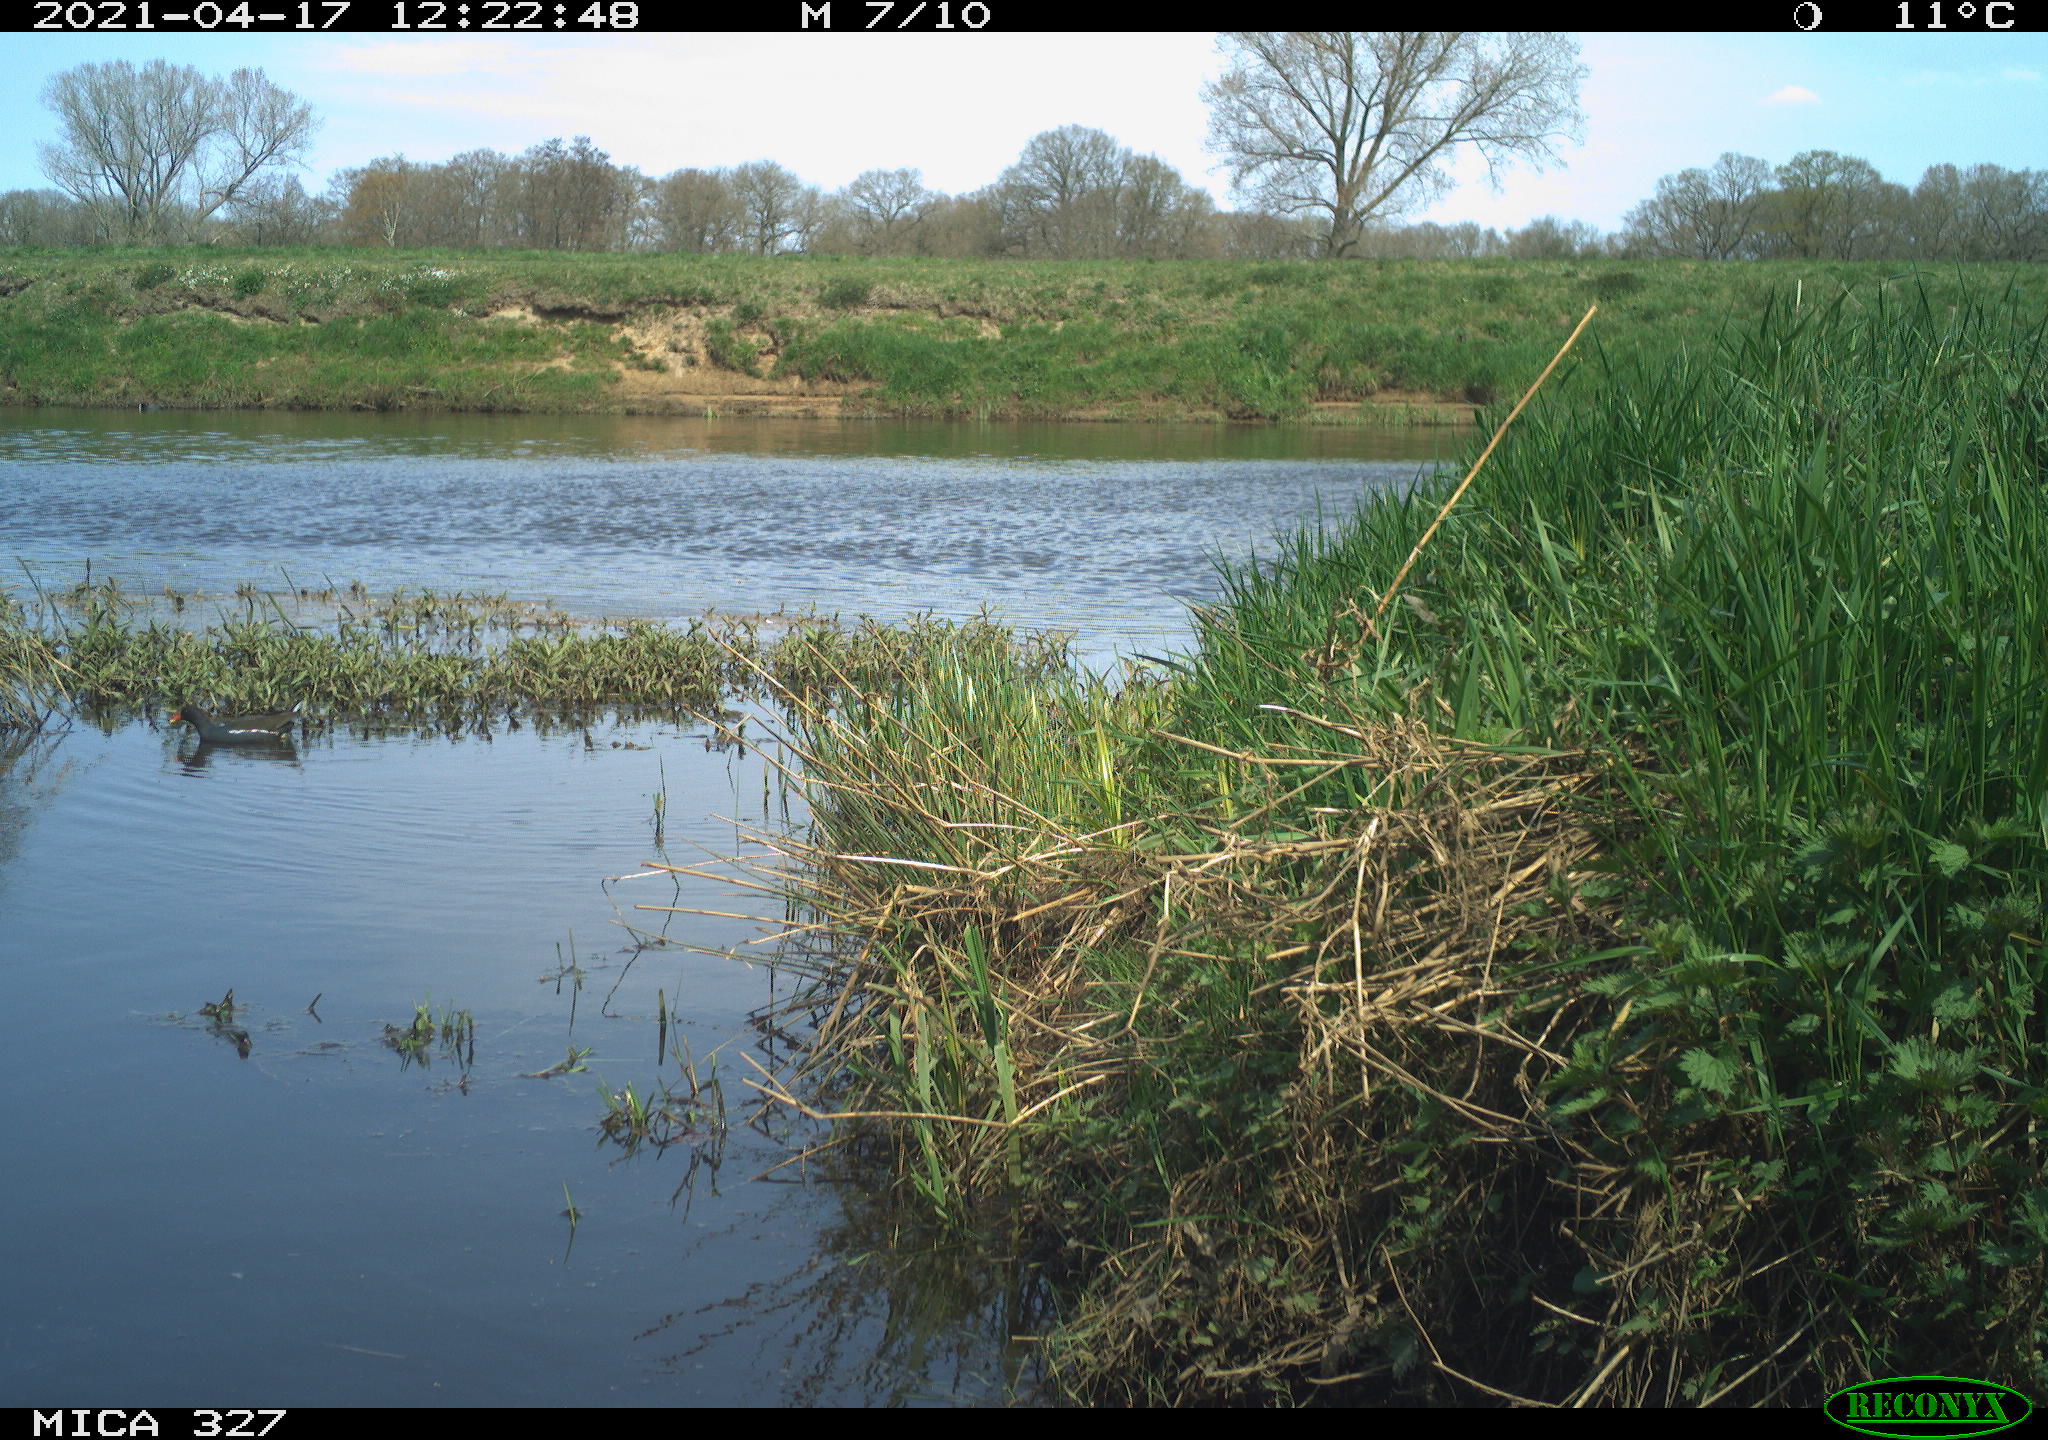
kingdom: Animalia
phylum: Chordata
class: Aves
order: Gruiformes
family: Rallidae
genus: Gallinula
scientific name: Gallinula chloropus
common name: Common moorhen
